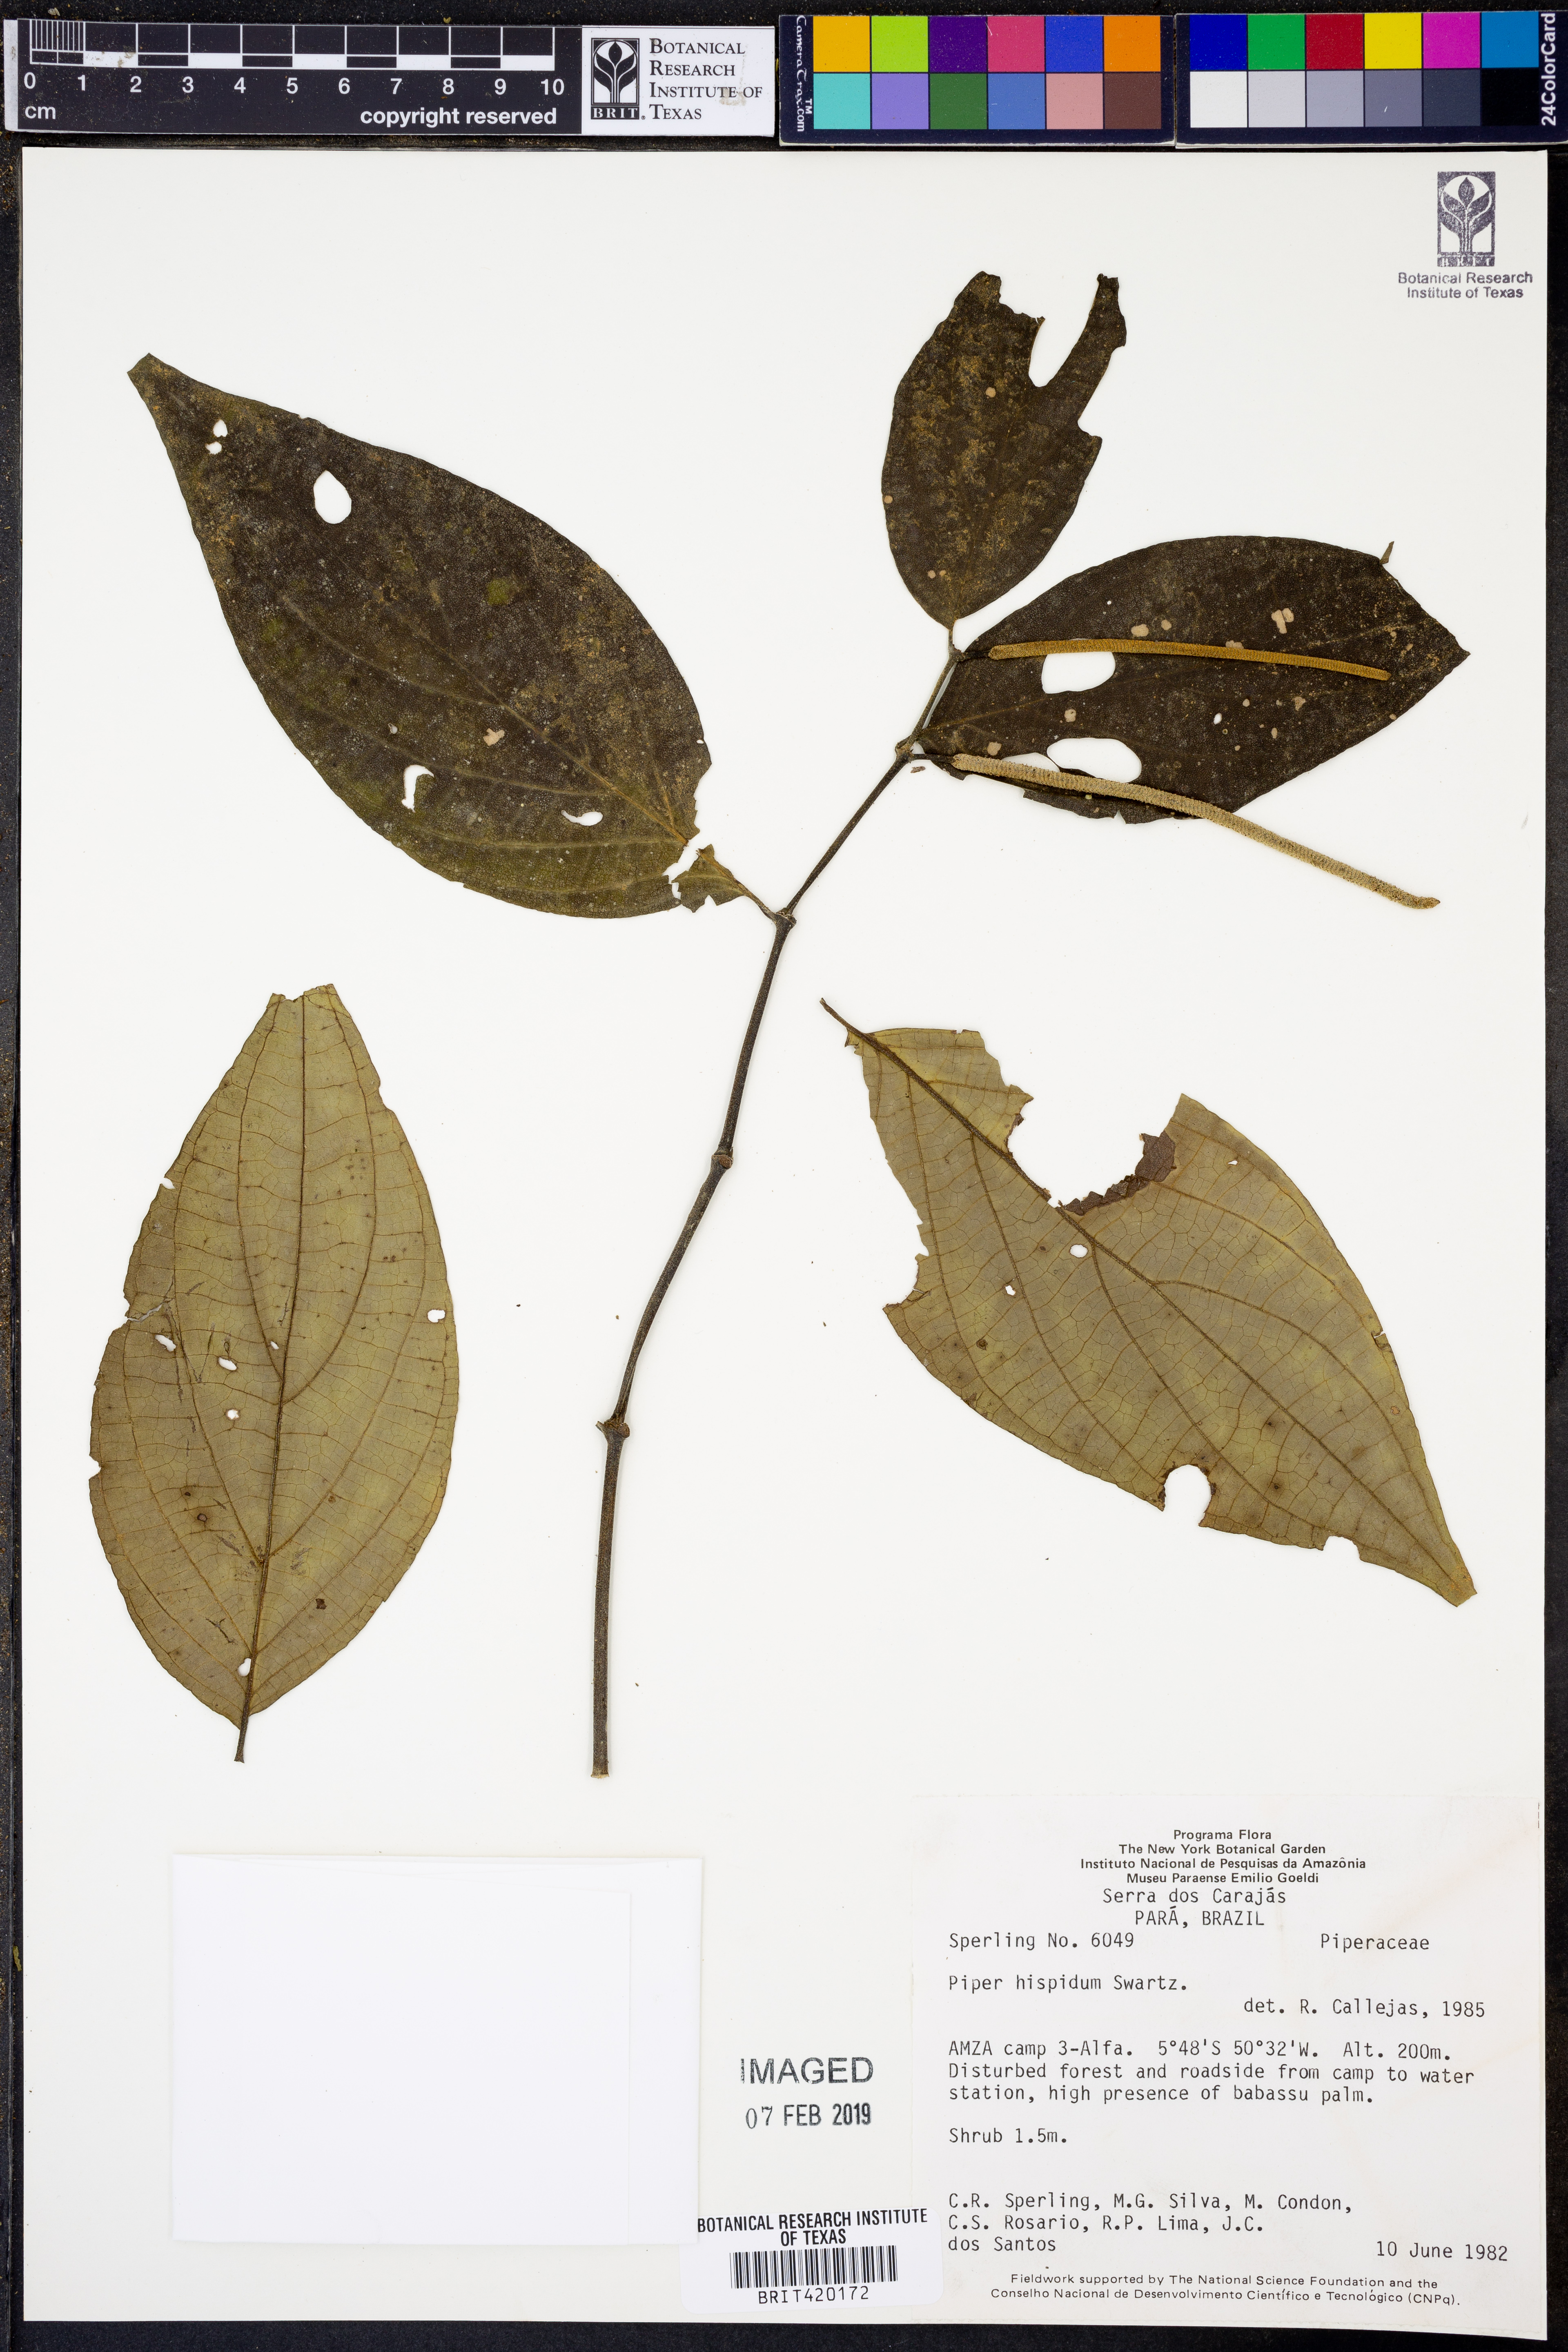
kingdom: Plantae
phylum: Tracheophyta
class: Magnoliopsida
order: Piperales
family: Piperaceae
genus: Piper
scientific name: Piper hispidum
